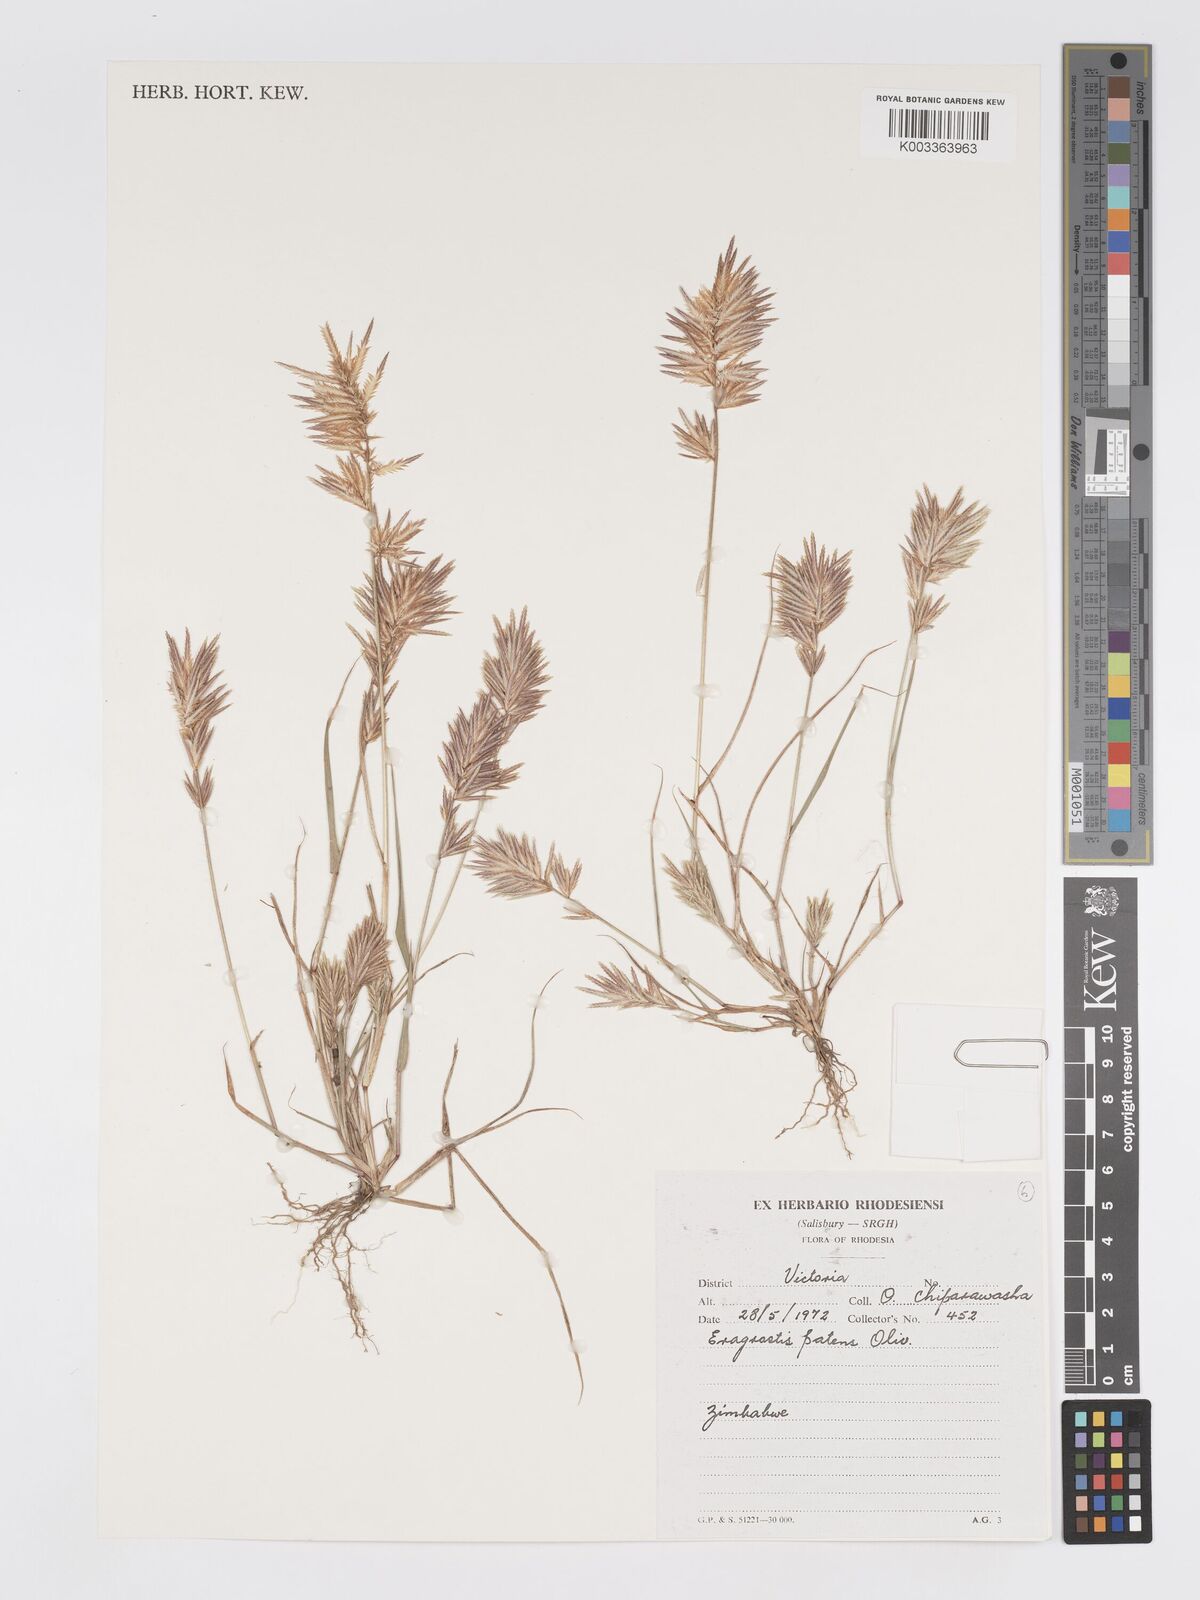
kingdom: Plantae
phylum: Tracheophyta
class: Liliopsida
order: Poales
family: Poaceae
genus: Eragrostis
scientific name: Eragrostis patens
